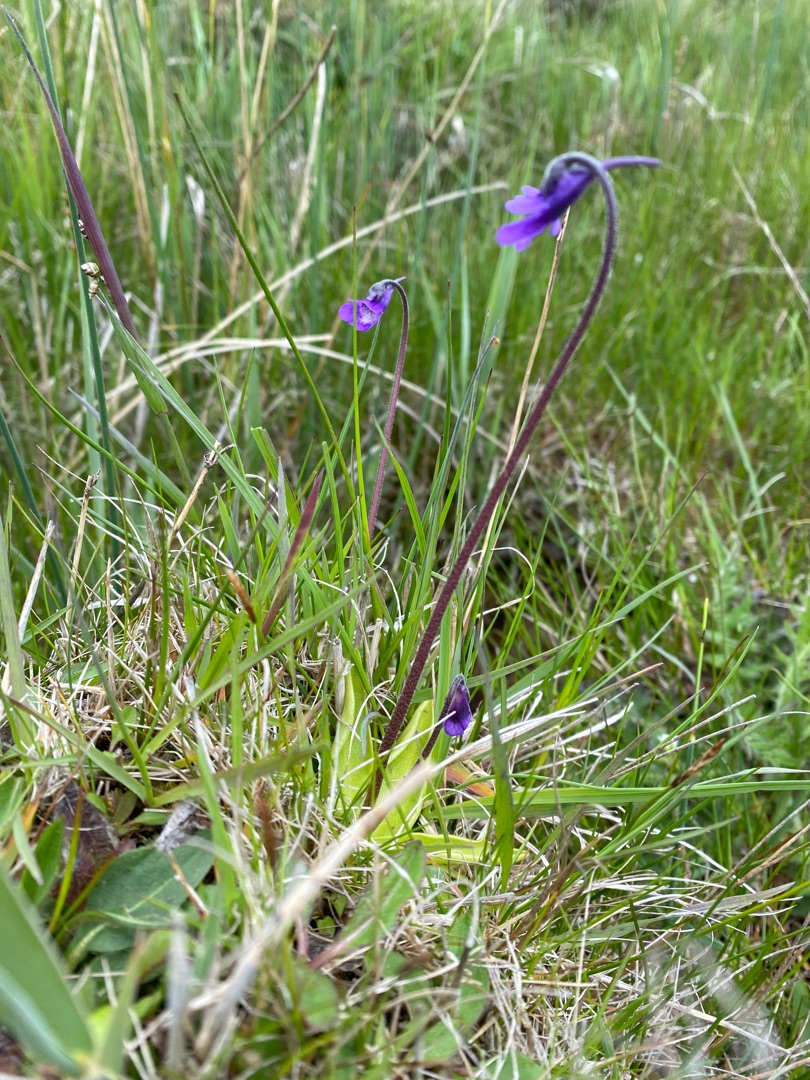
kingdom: Plantae
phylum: Tracheophyta
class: Magnoliopsida
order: Lamiales
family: Lentibulariaceae
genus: Pinguicula
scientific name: Pinguicula vulgaris
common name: Vibefedt
